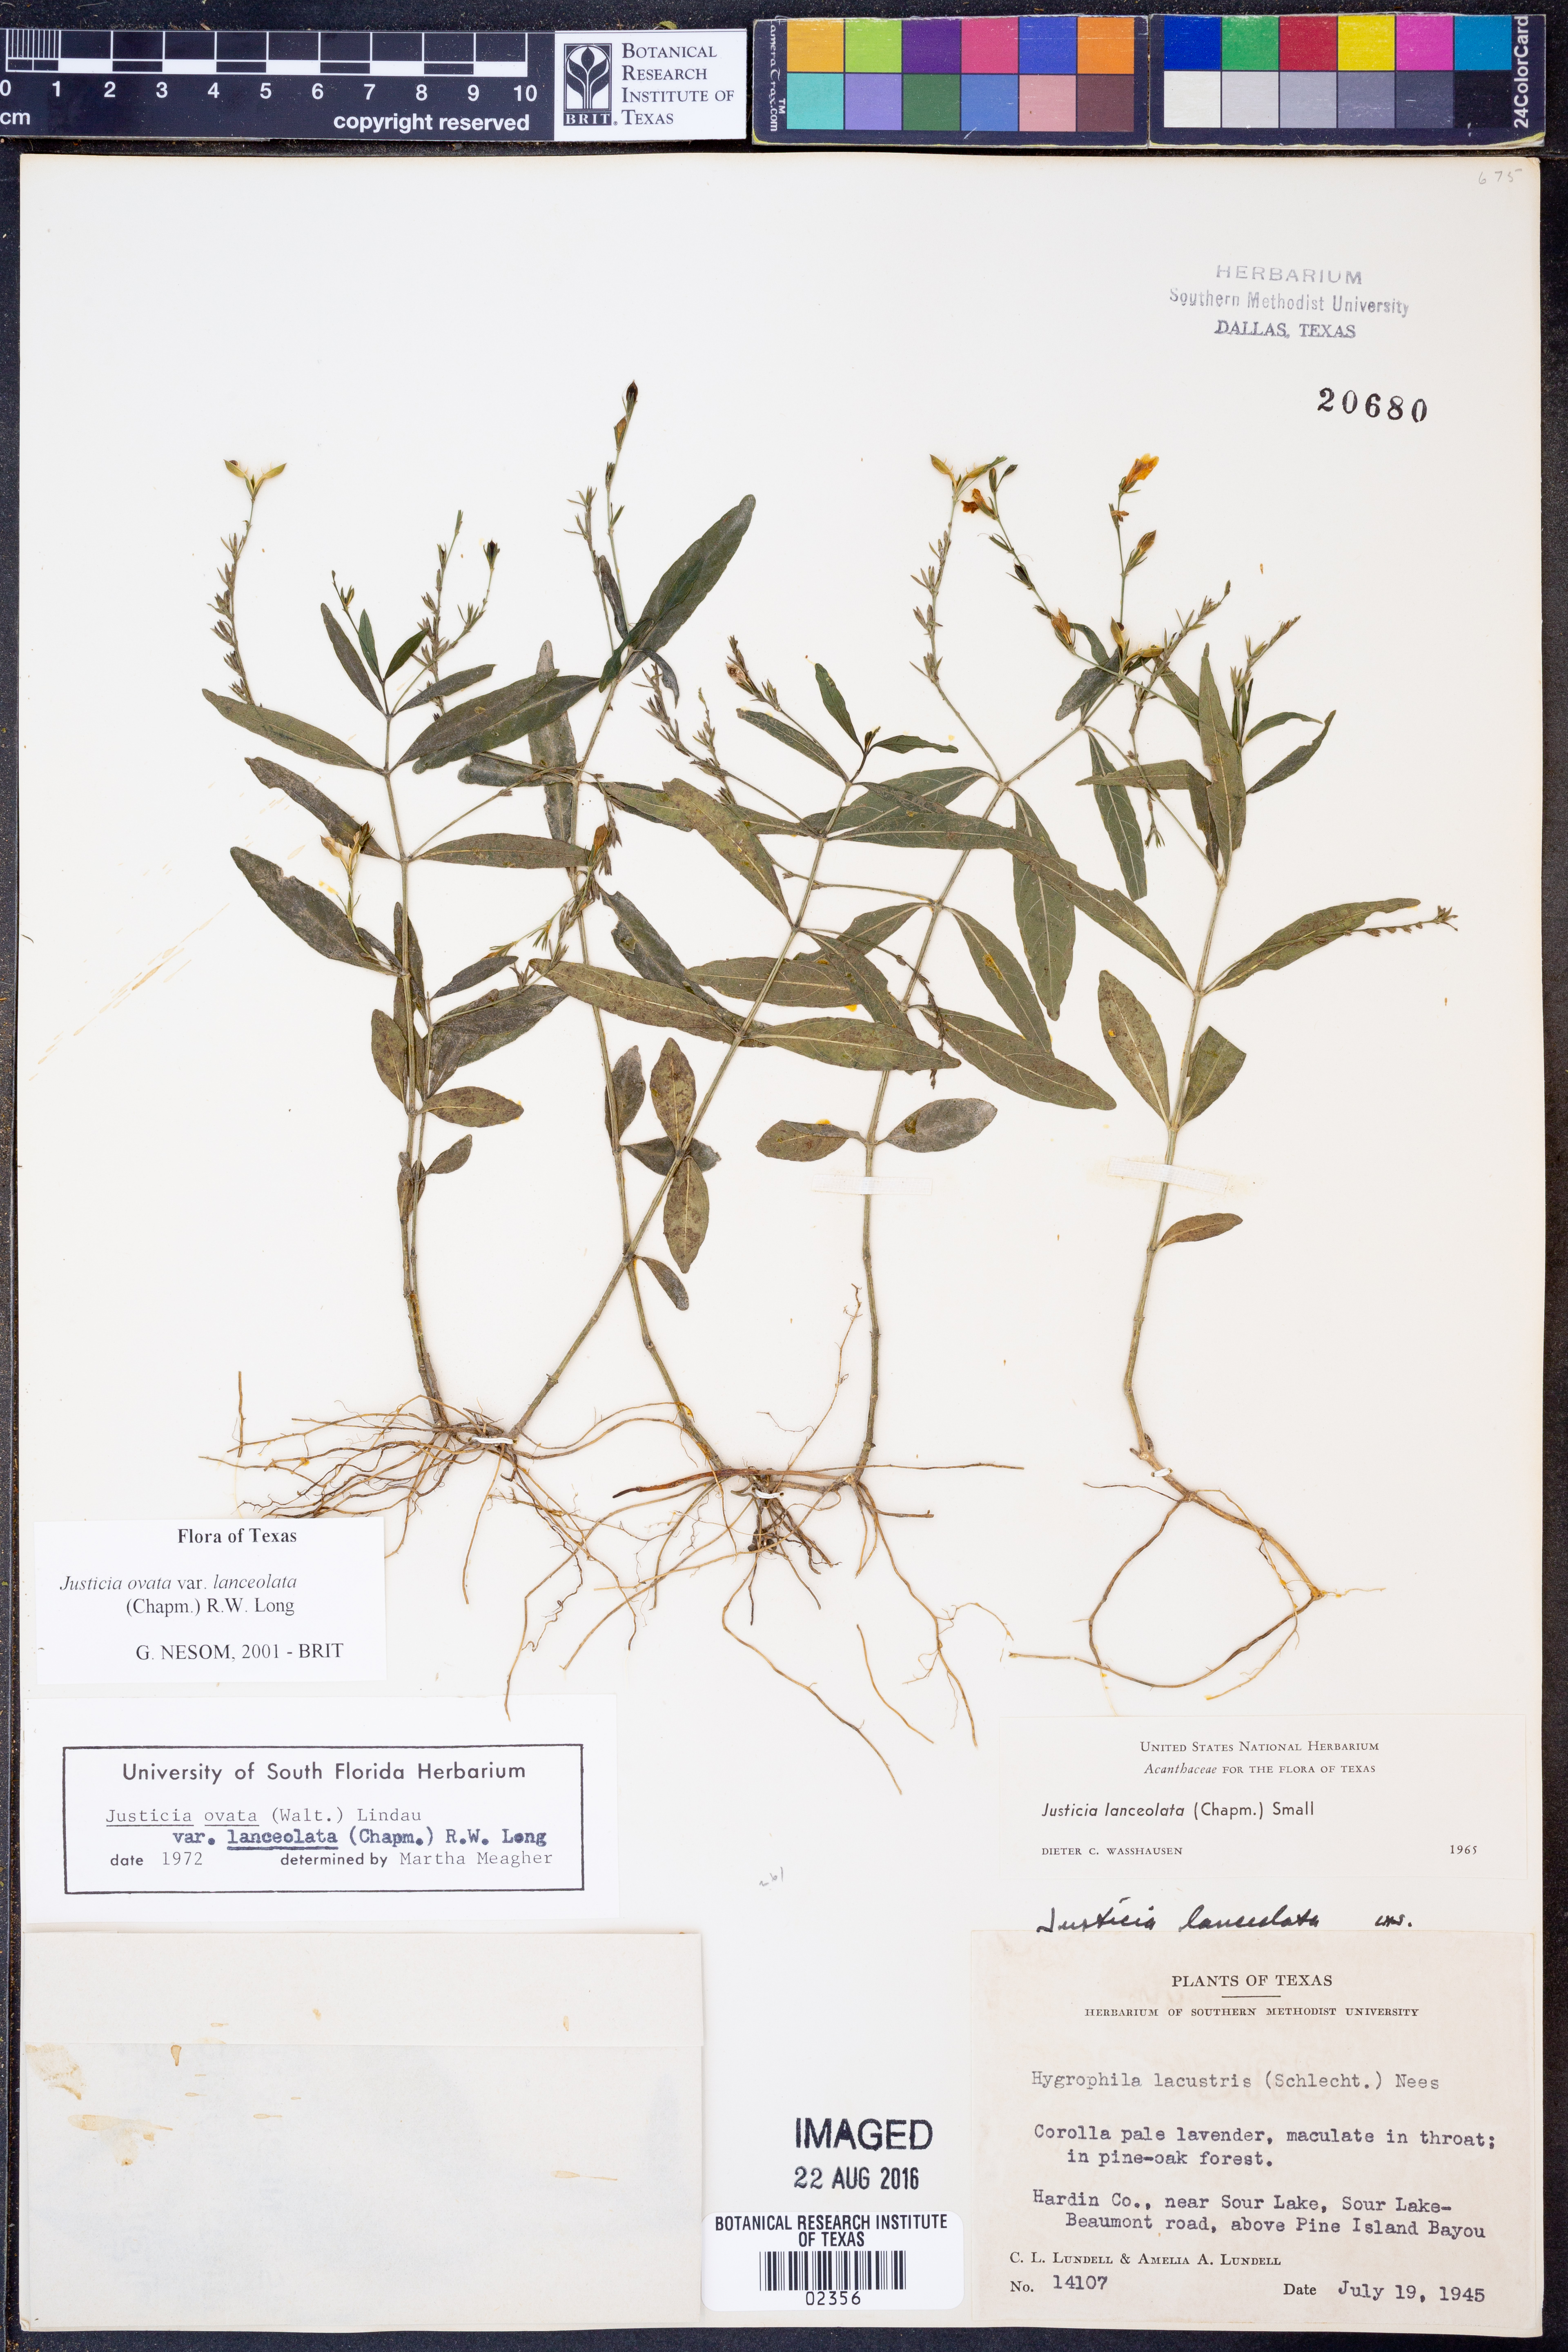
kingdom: Plantae
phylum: Tracheophyta
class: Magnoliopsida
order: Lamiales
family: Acanthaceae
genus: Justicia
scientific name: Justicia lanceolata
